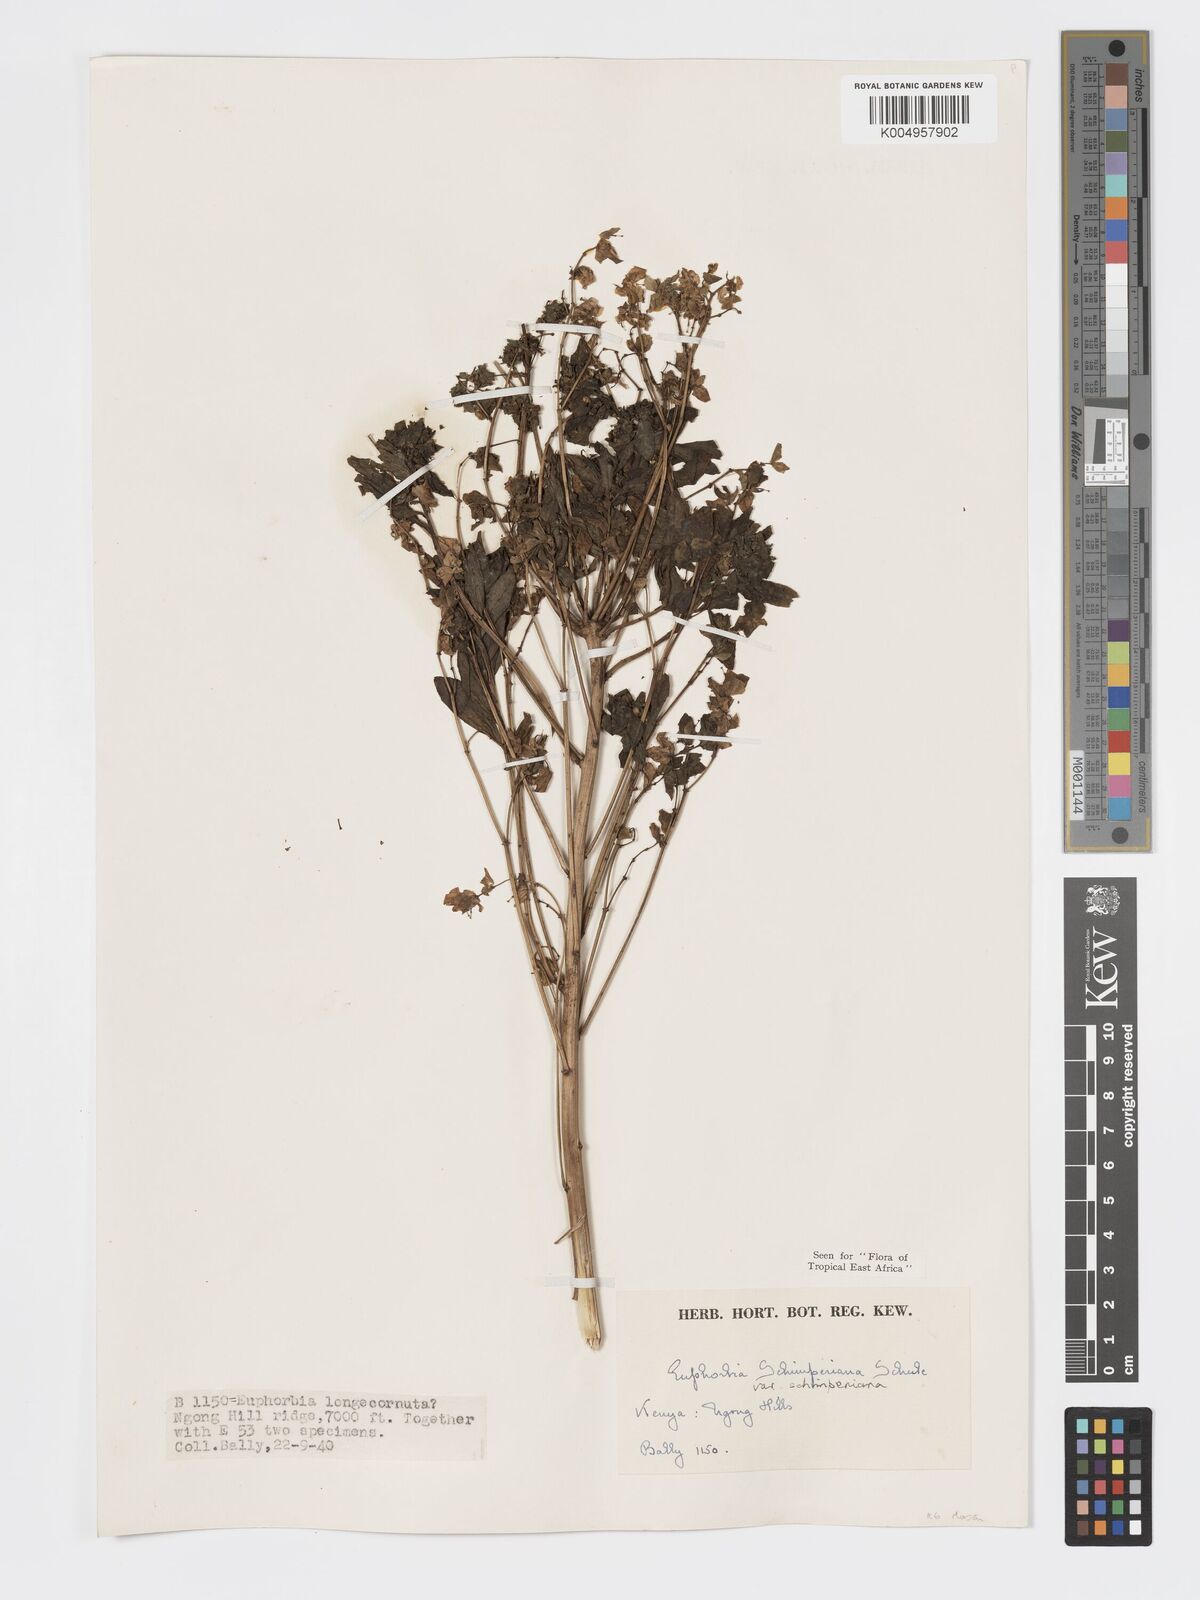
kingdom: Plantae
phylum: Tracheophyta
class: Magnoliopsida
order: Malpighiales
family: Euphorbiaceae
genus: Euphorbia
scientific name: Euphorbia schimperiana
